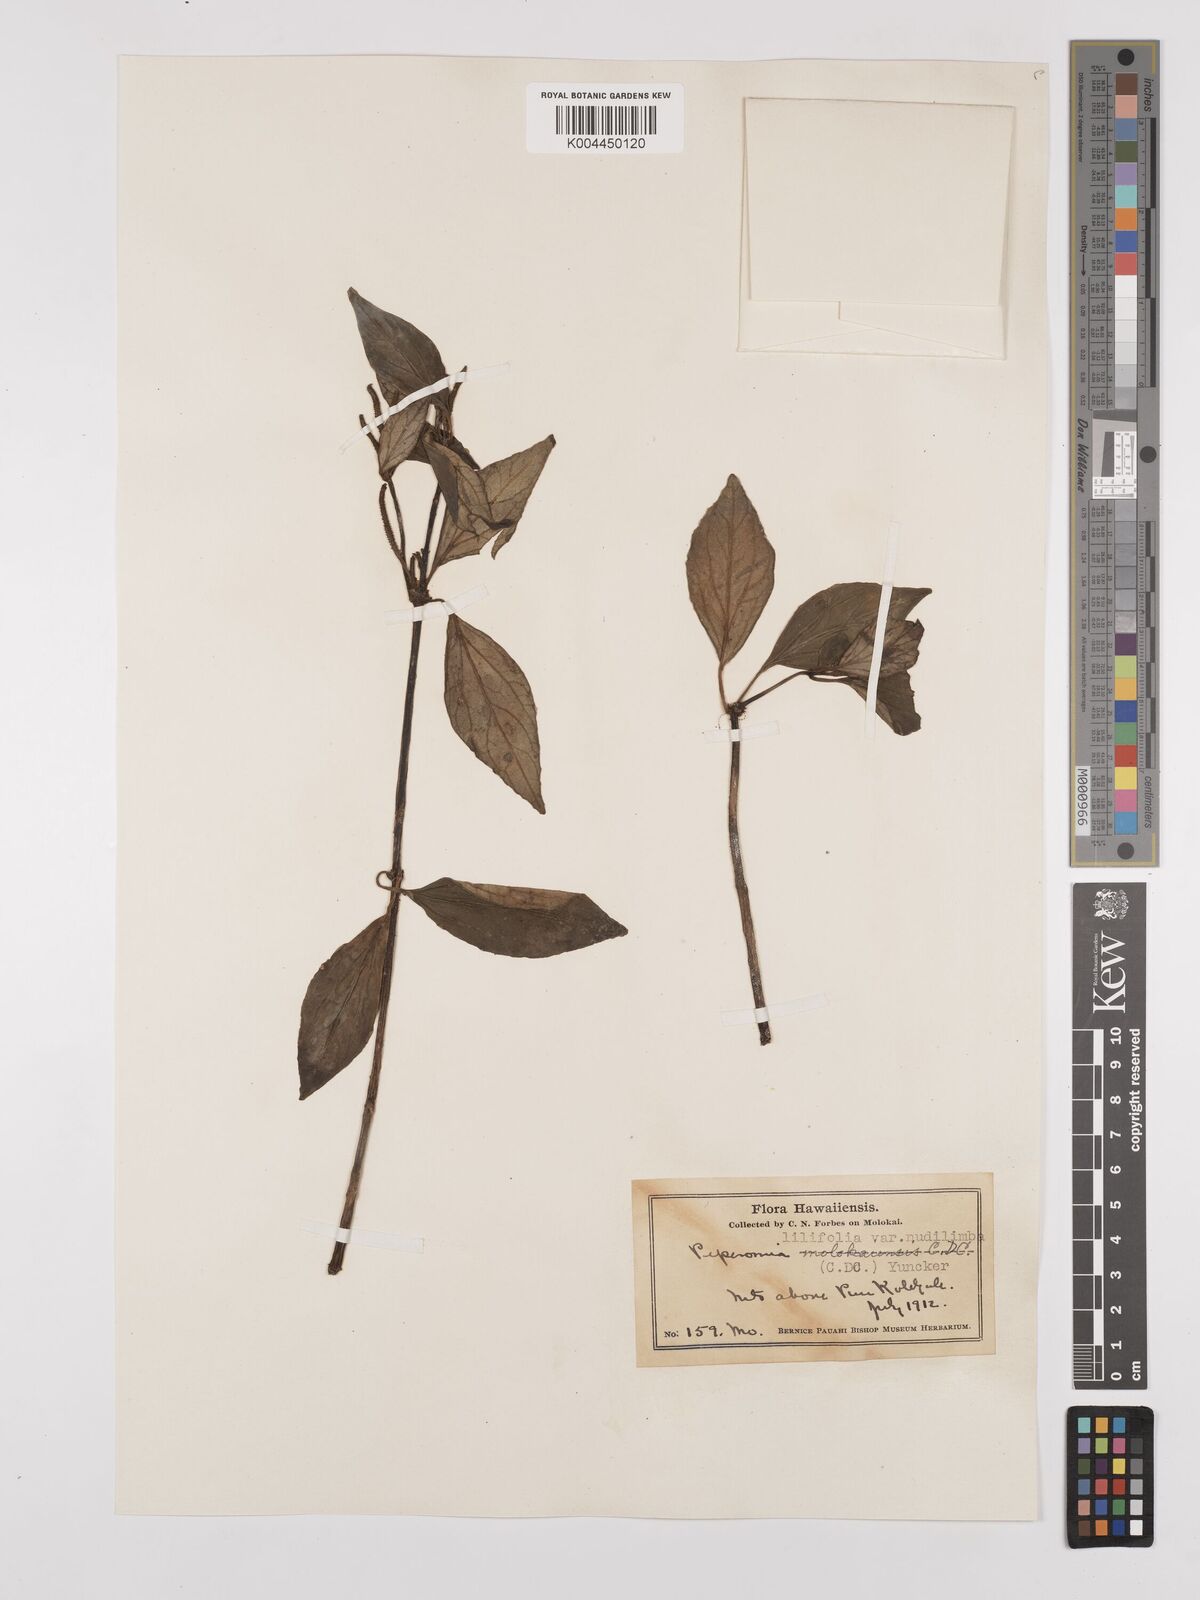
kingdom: Plantae
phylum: Tracheophyta
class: Magnoliopsida
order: Piperales
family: Piperaceae
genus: Peperomia
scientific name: Peperomia macraeana
